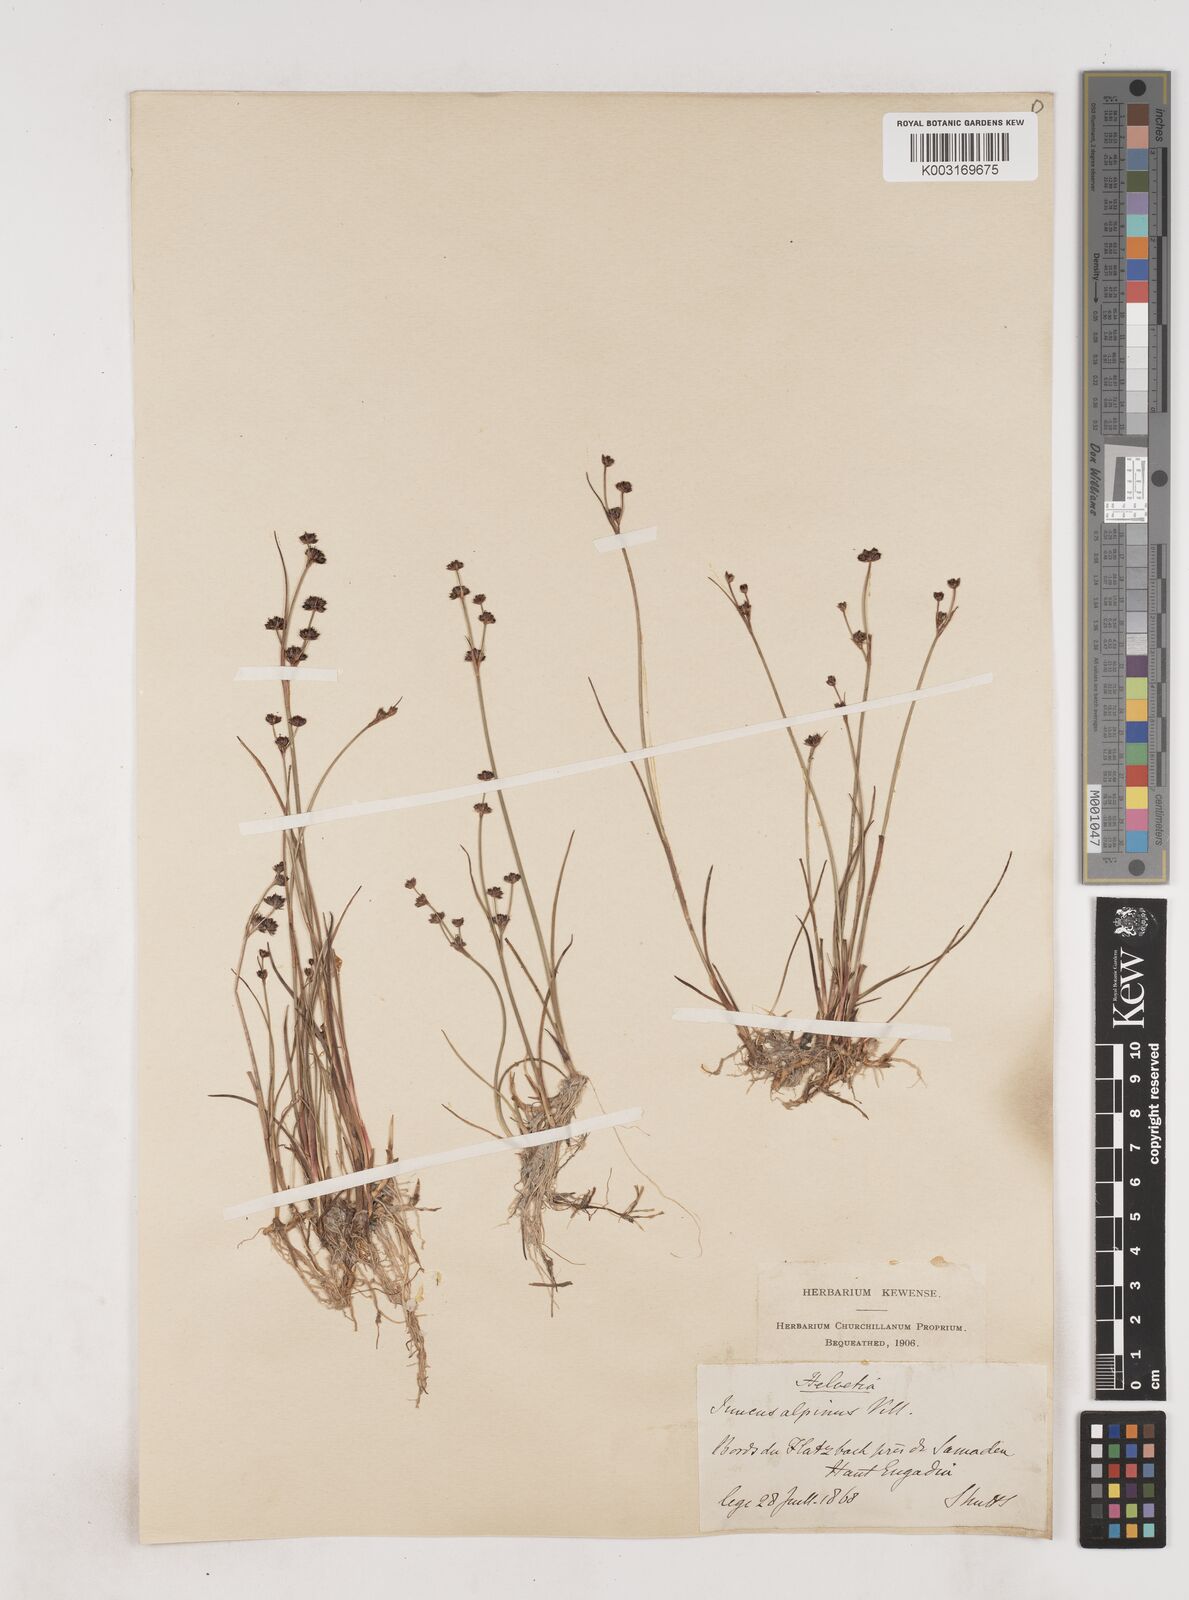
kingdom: Plantae
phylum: Tracheophyta
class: Liliopsida
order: Poales
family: Juncaceae
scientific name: Juncaceae
